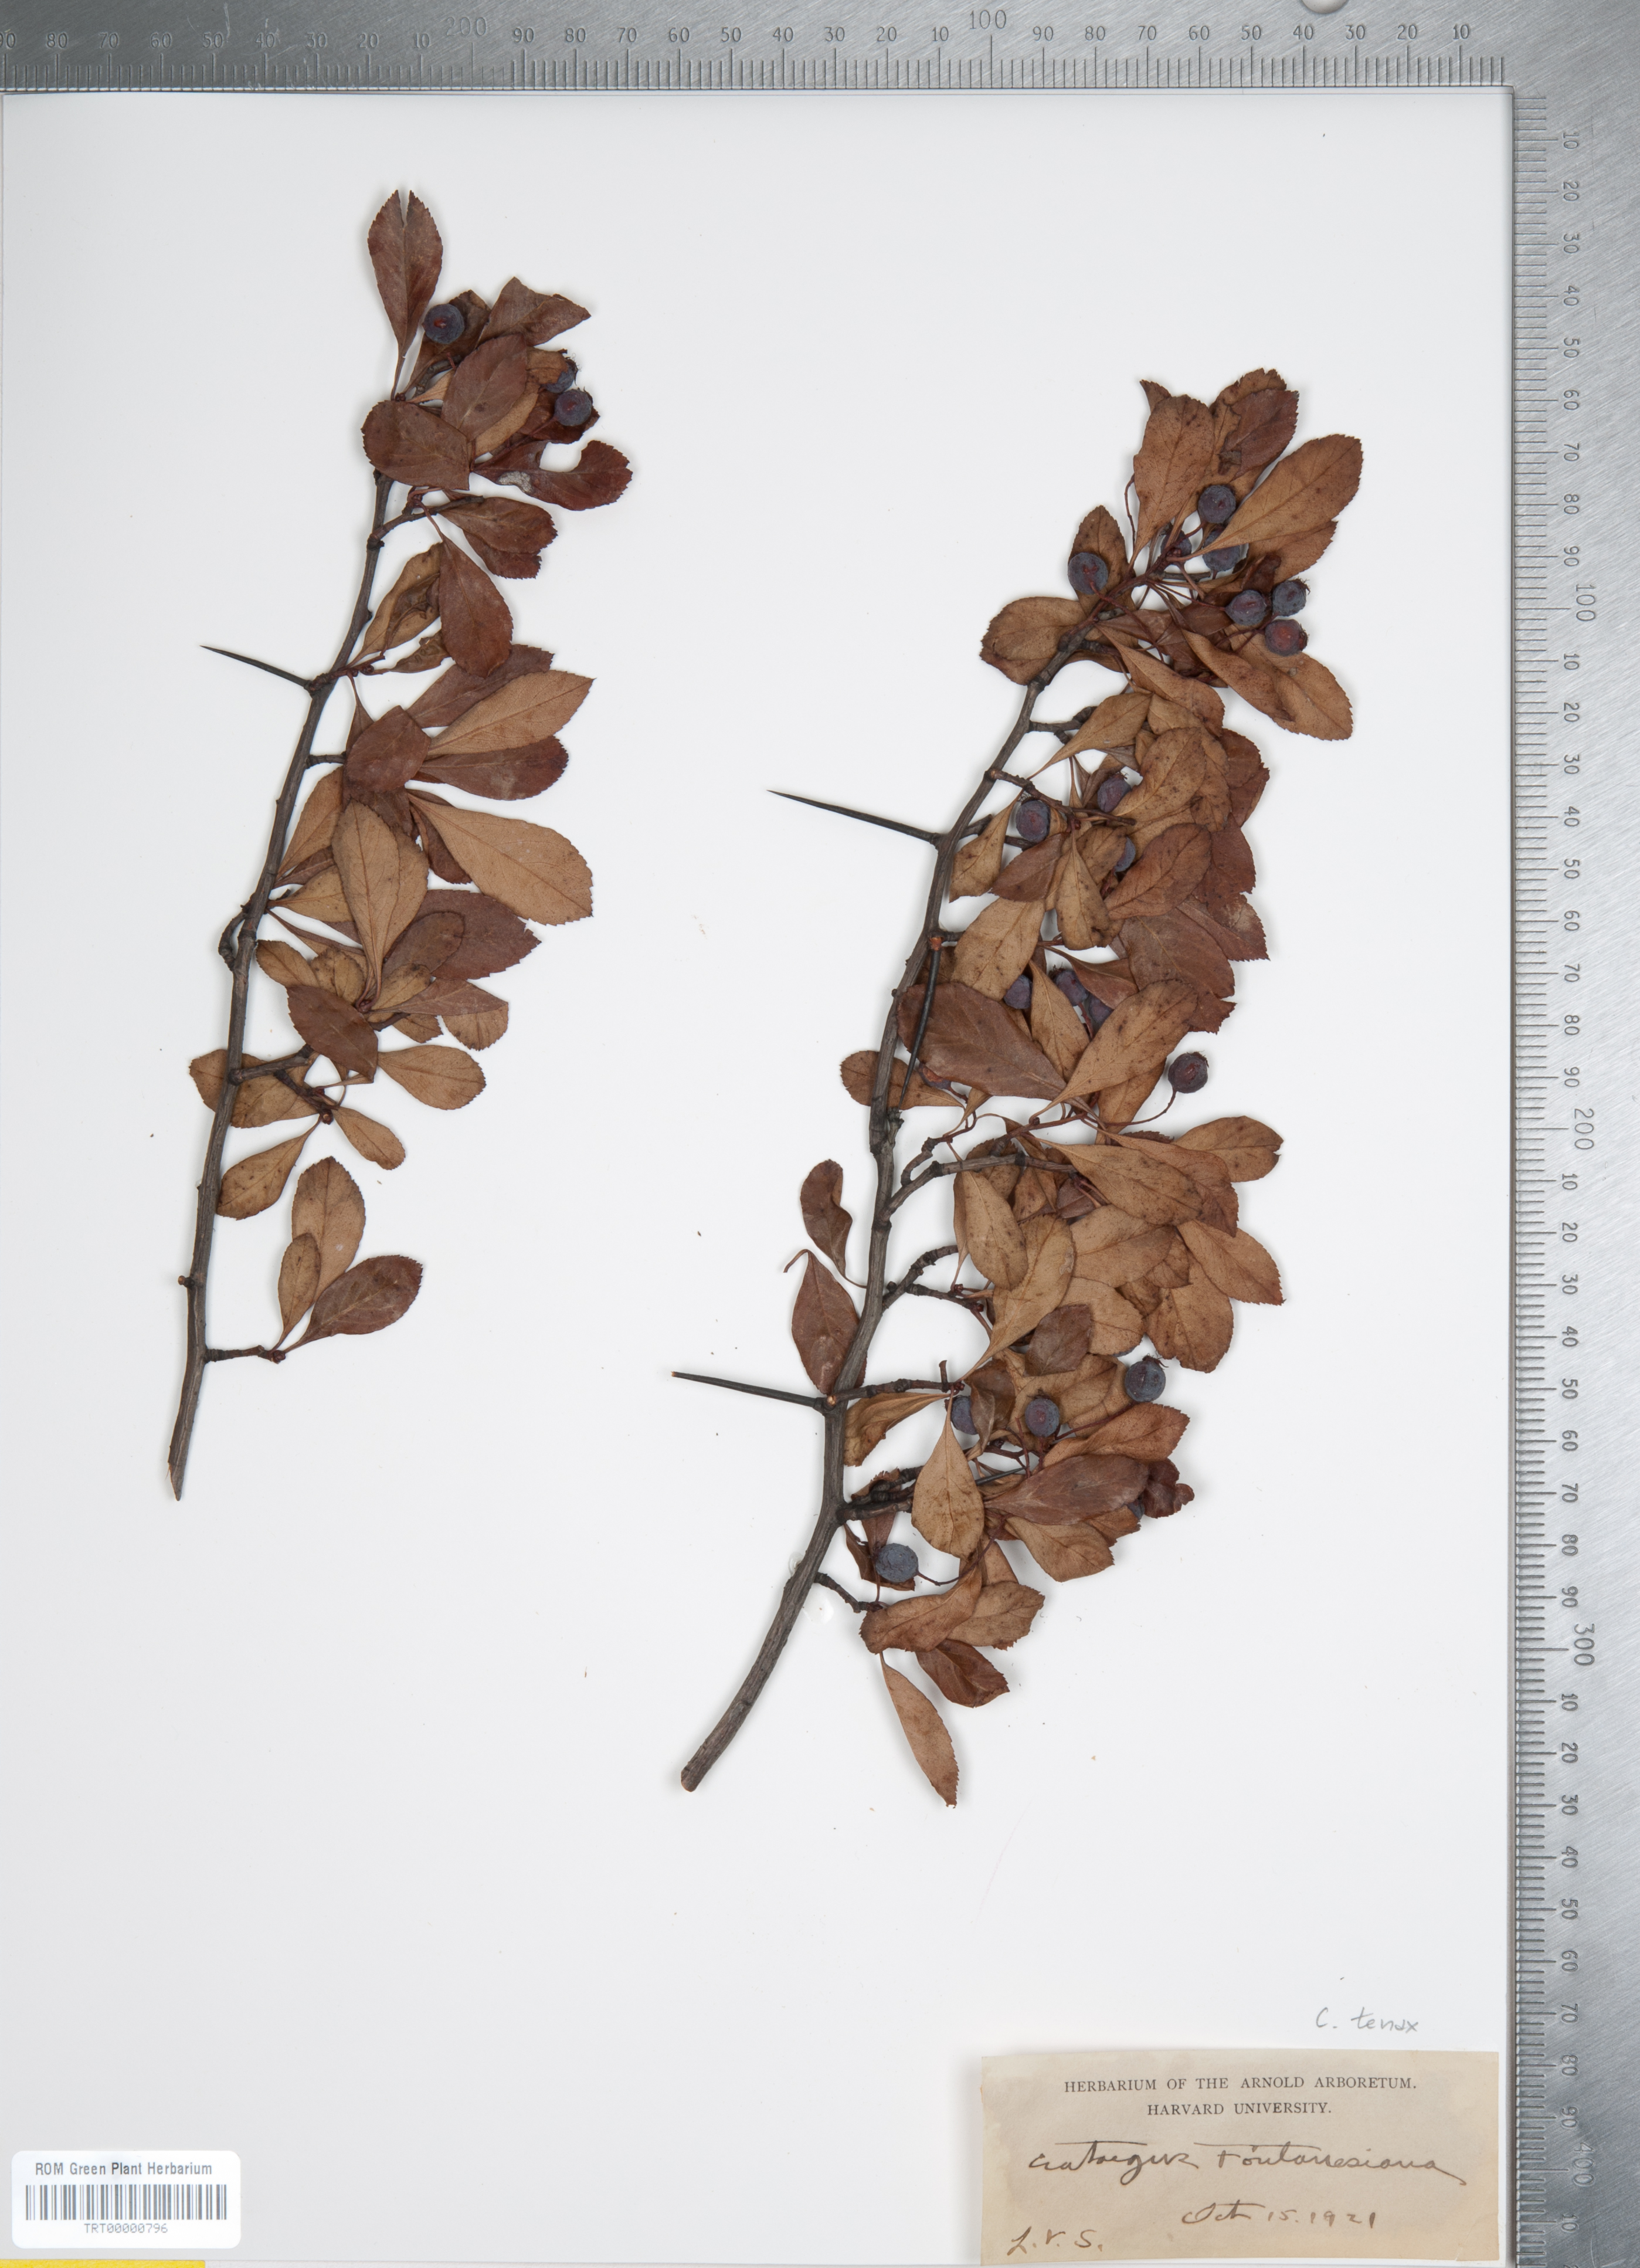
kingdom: Plantae
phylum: Tracheophyta
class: Magnoliopsida
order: Rosales
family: Rosaceae
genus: Crataegus
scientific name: Crataegus crus-galli
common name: Cockspurthorn
